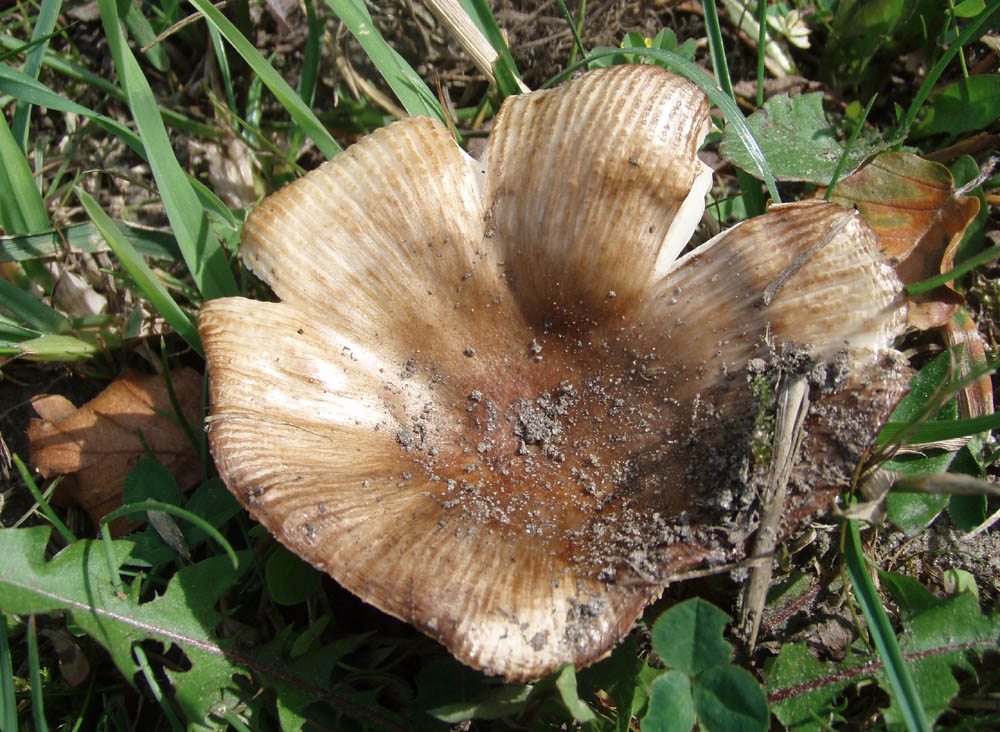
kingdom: Fungi
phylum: Basidiomycota
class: Agaricomycetes
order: Russulales
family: Russulaceae
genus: Russula
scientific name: Russula amoenolens
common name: skarp kam-skørhat
